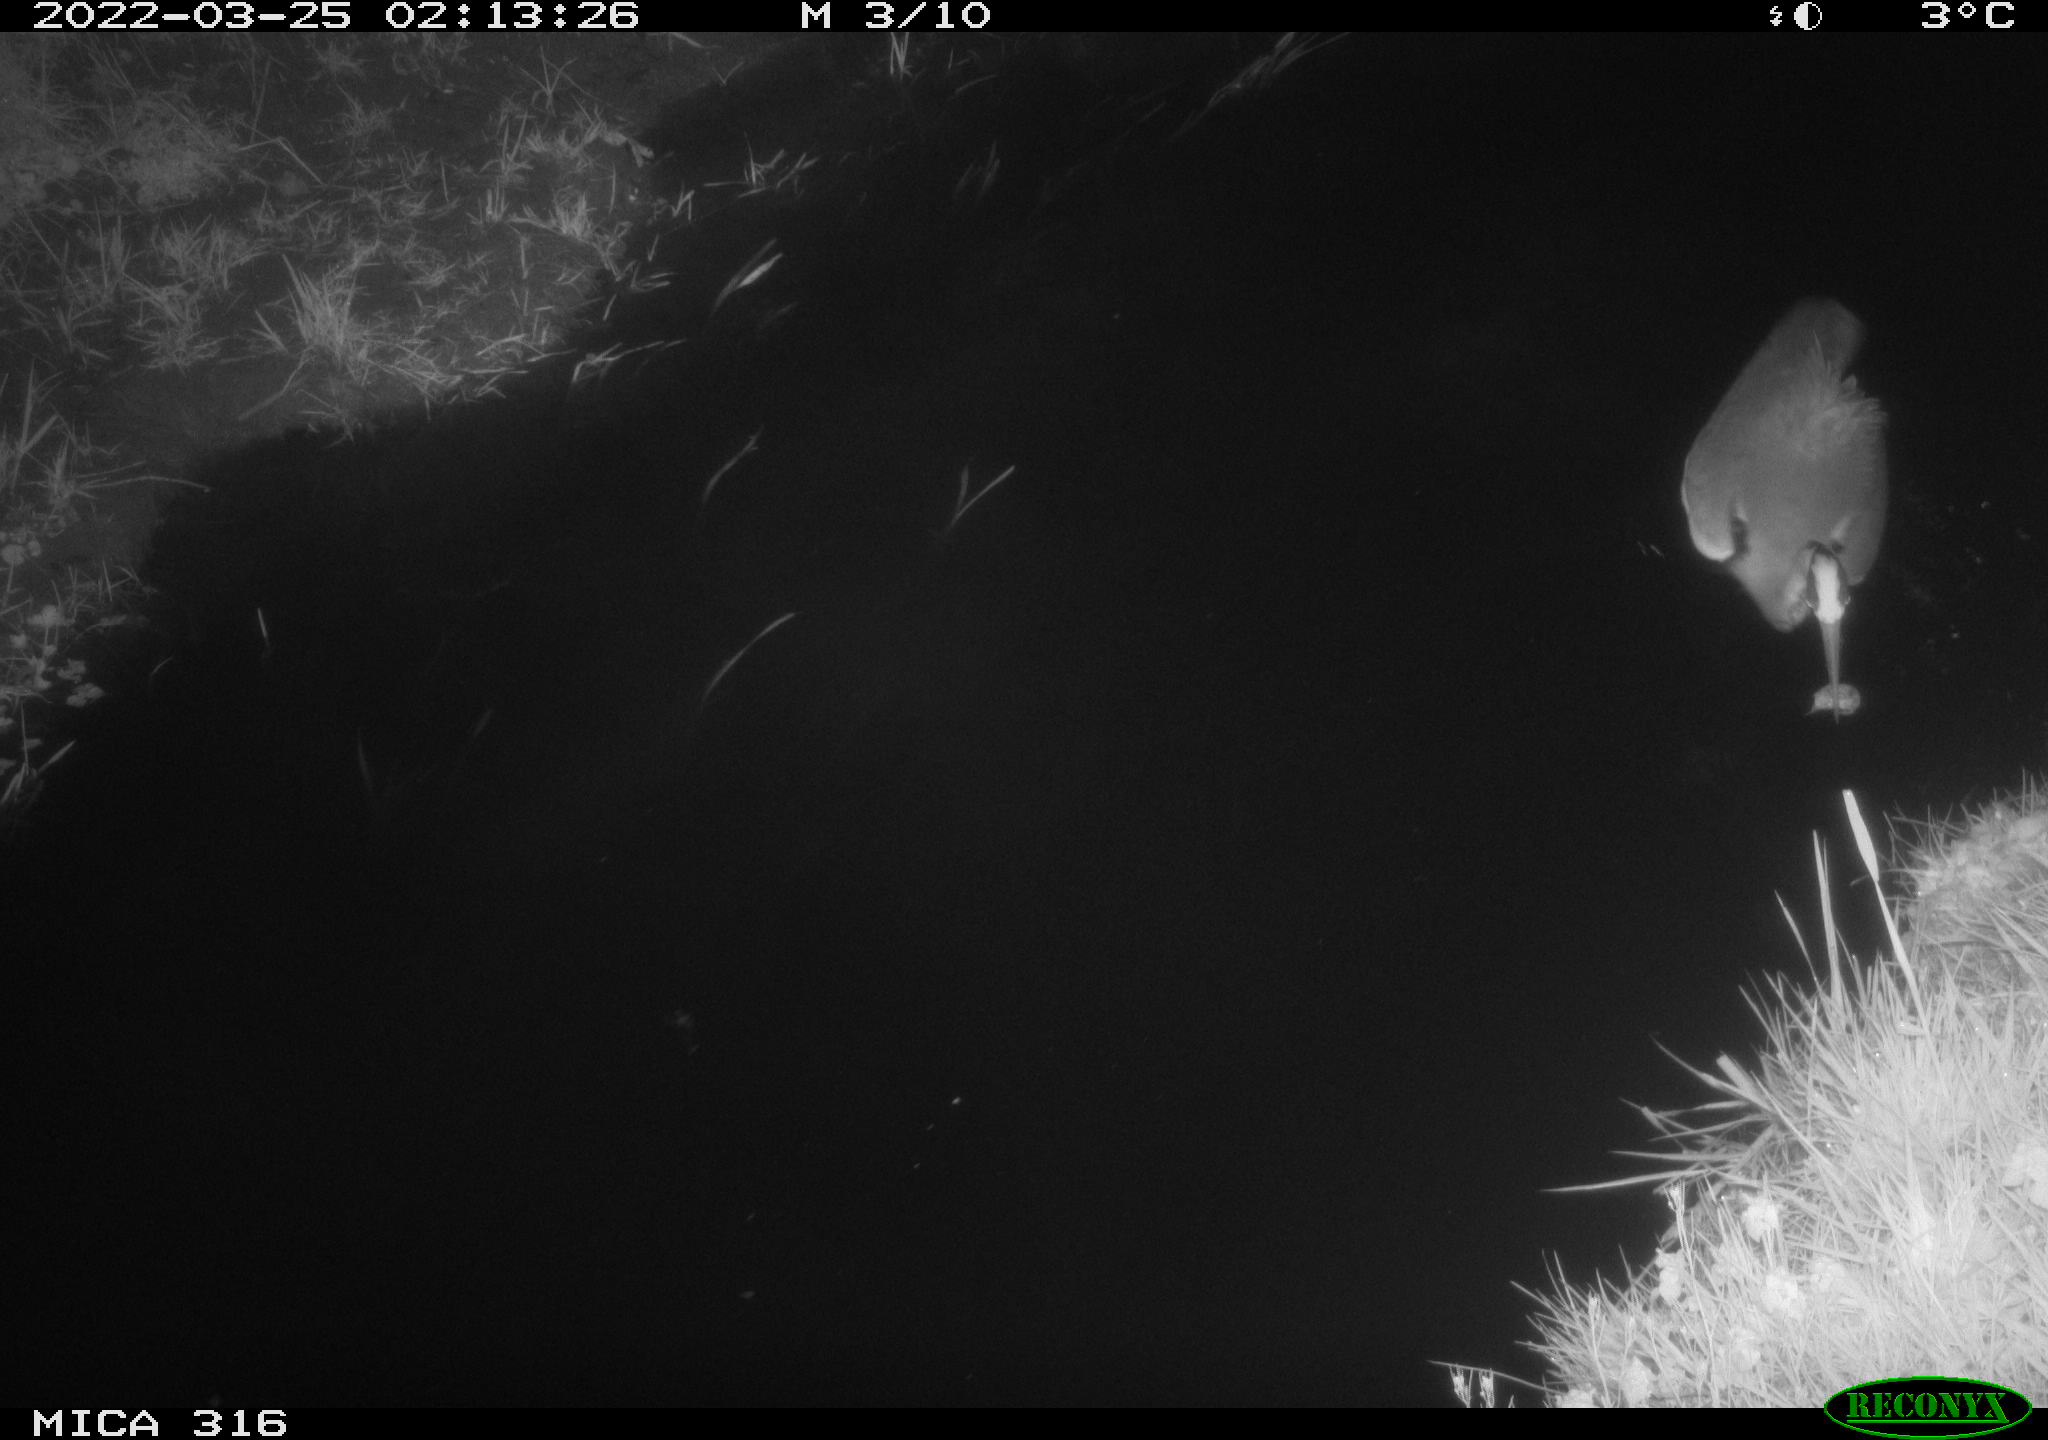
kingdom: Animalia
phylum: Chordata
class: Aves
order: Pelecaniformes
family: Ardeidae
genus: Ardea
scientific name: Ardea
